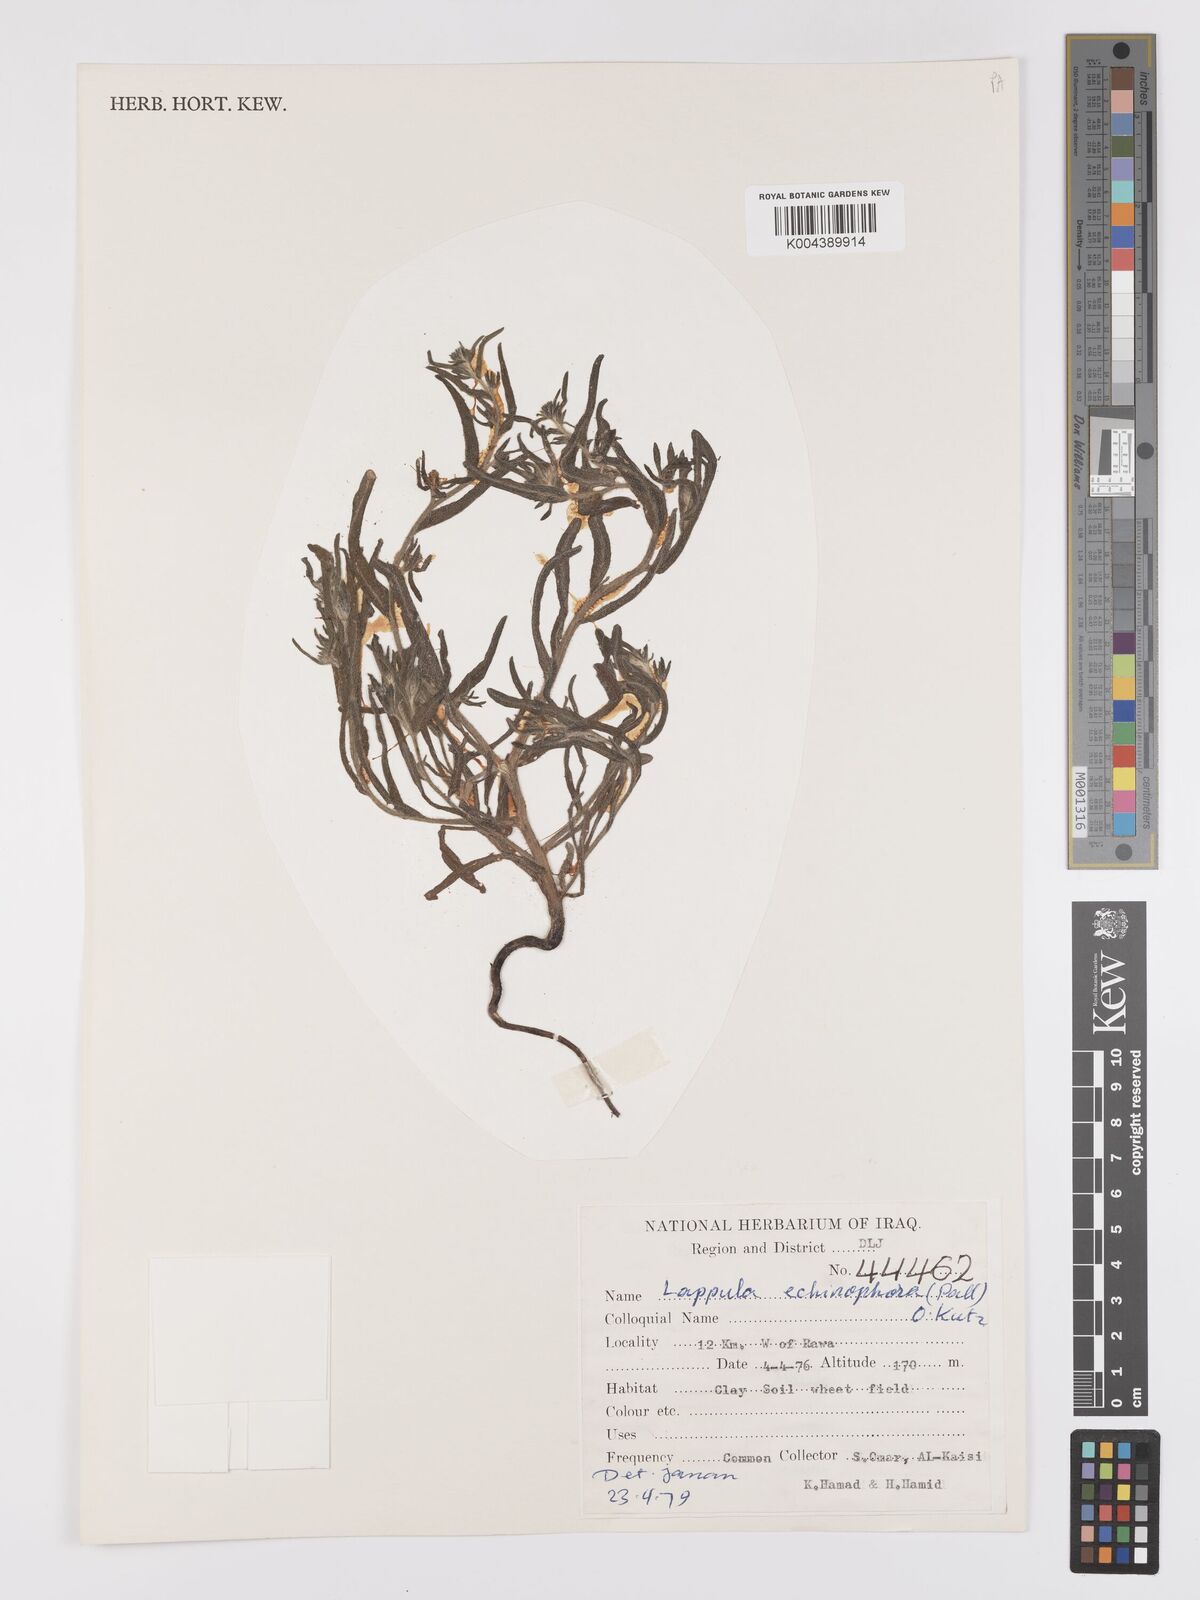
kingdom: Plantae
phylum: Tracheophyta
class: Magnoliopsida
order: Boraginales
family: Boraginaceae
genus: Heterocaryum
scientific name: Heterocaryum echinophorum
